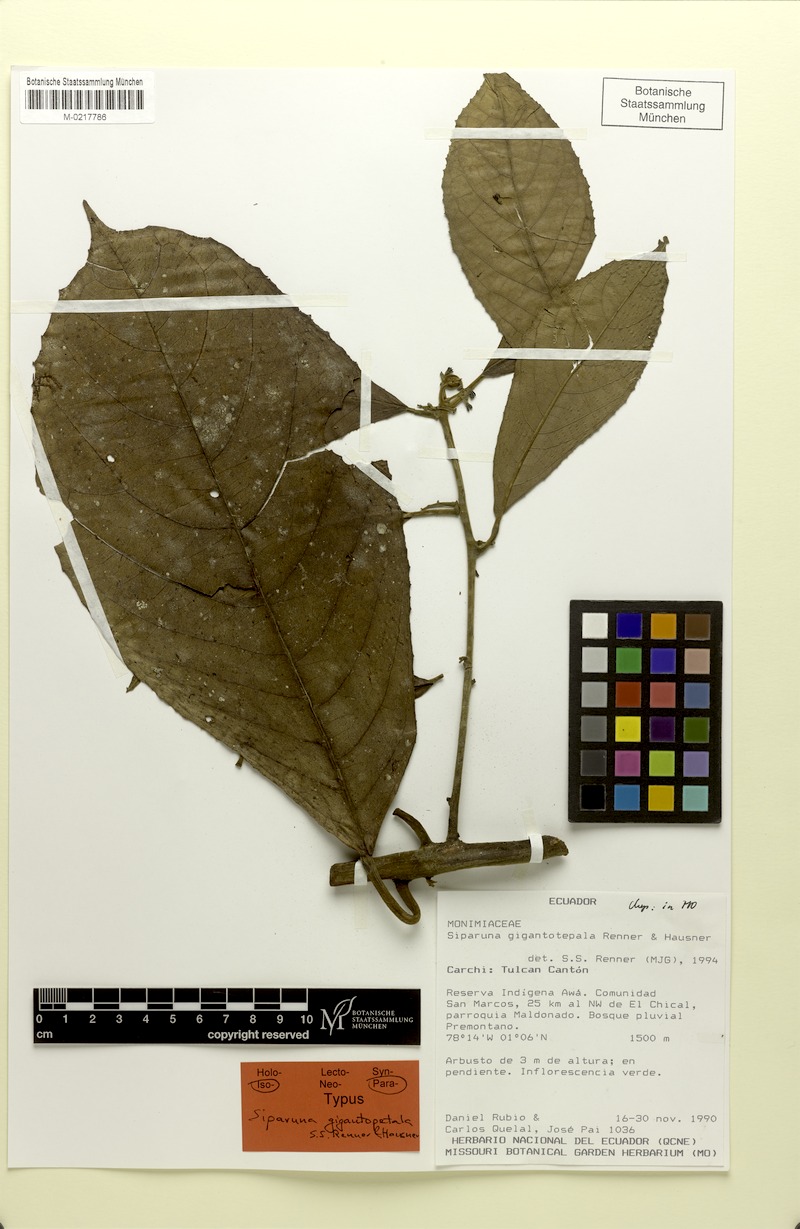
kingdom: Plantae
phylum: Tracheophyta
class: Magnoliopsida
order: Laurales
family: Siparunaceae
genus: Siparuna
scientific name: Siparuna gigantotepala
